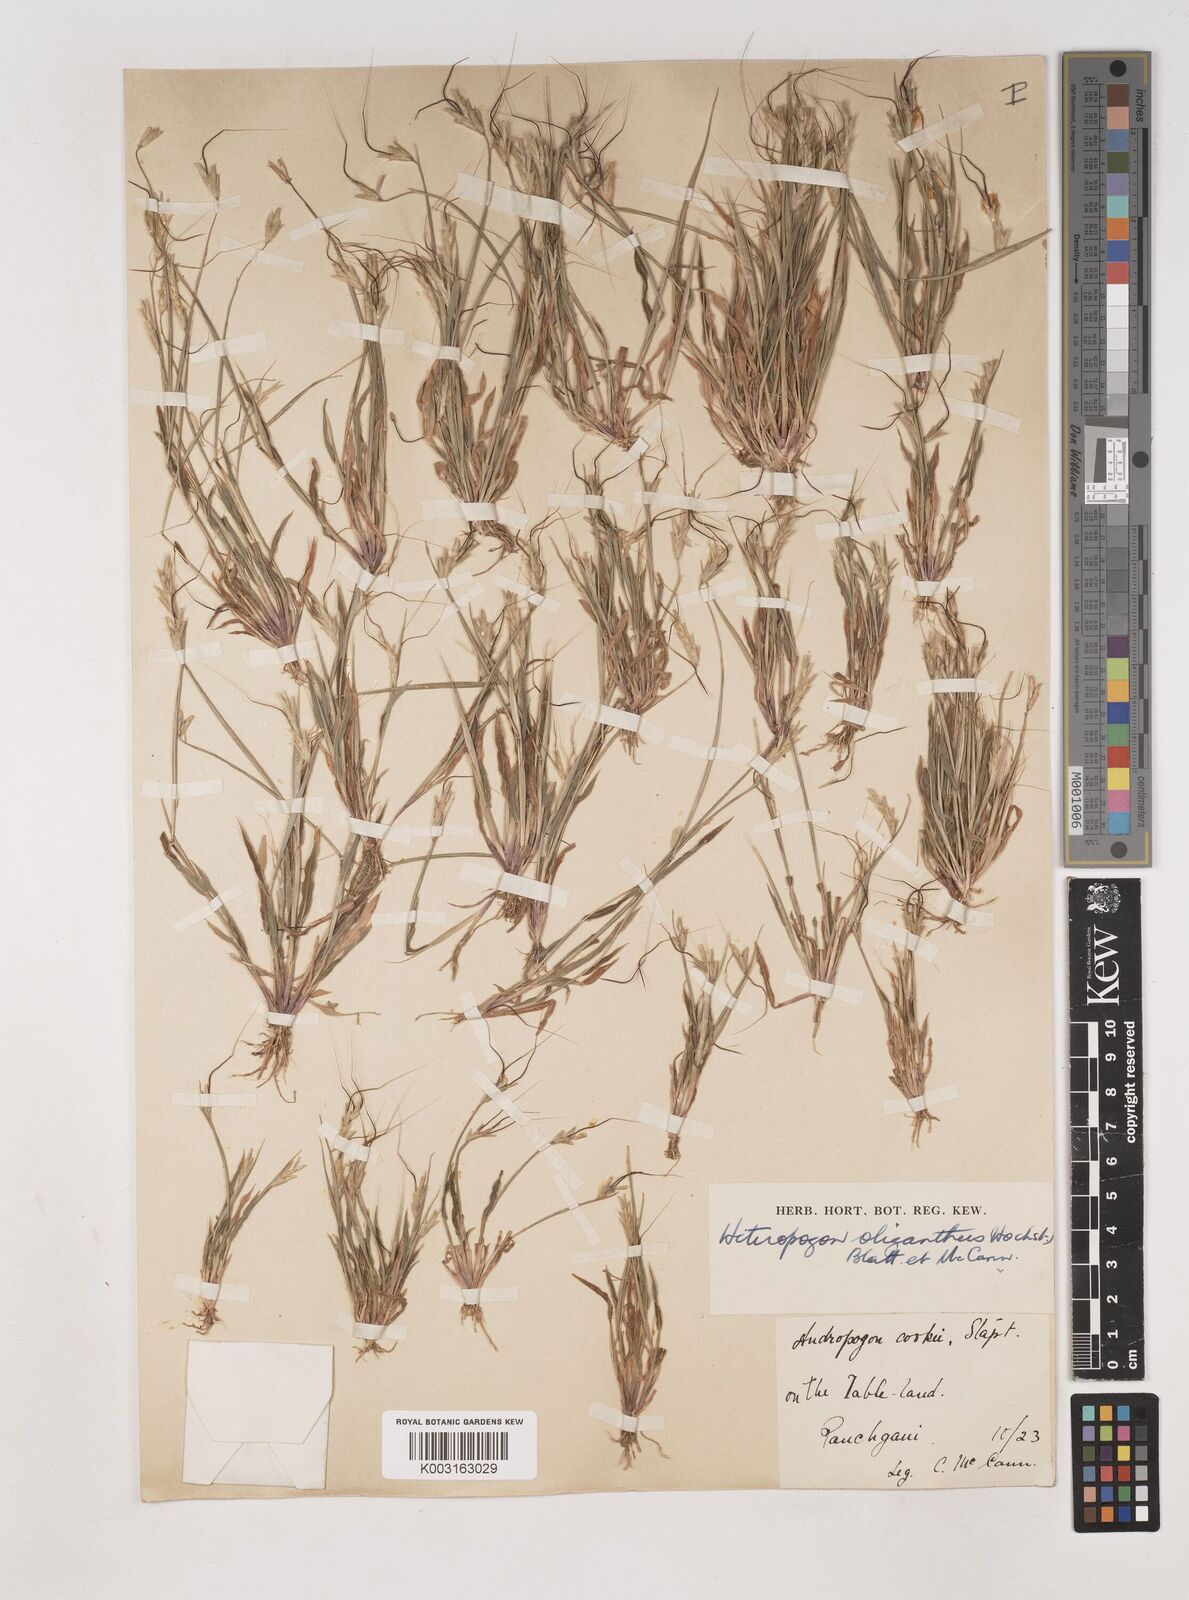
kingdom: Plantae
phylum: Tracheophyta
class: Liliopsida
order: Poales
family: Poaceae
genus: Euclasta
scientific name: Euclasta oligantha
